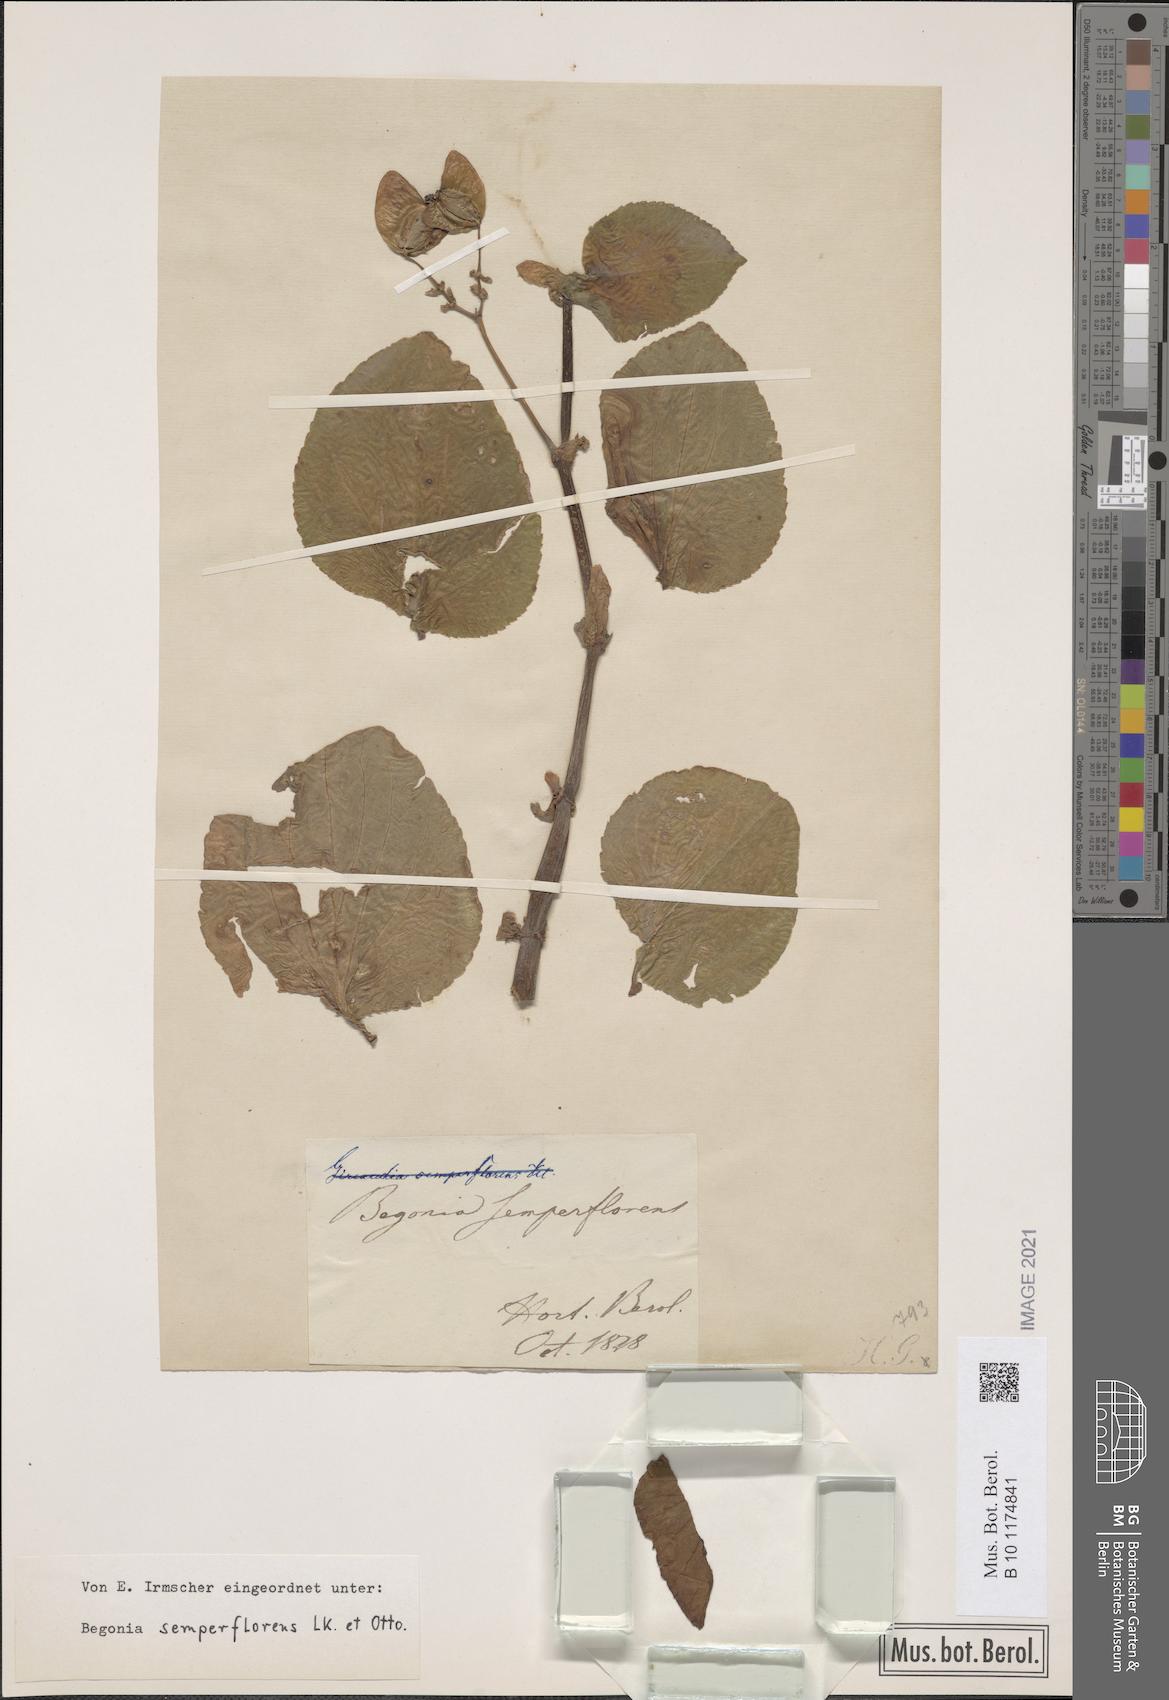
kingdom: Plantae
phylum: Tracheophyta
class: Magnoliopsida
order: Cucurbitales
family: Begoniaceae
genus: Begonia
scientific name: Begonia cucullata
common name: Clubbed begonia
